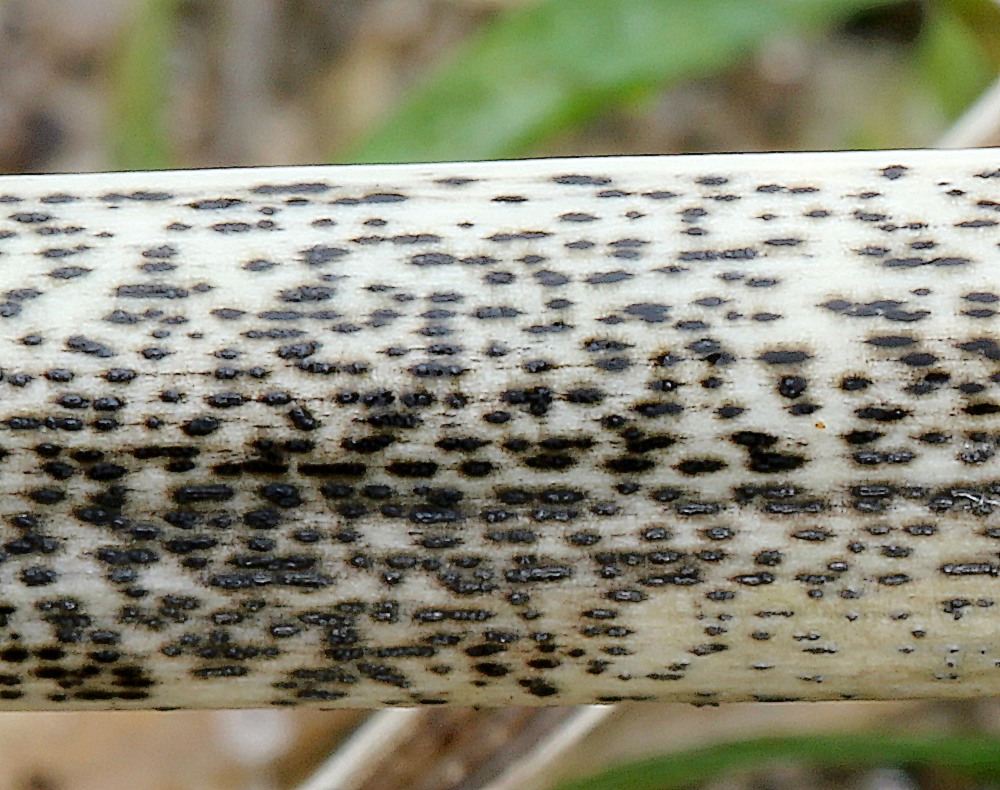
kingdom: Fungi
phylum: Ascomycota
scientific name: Ascomycota
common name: sæksvampe
